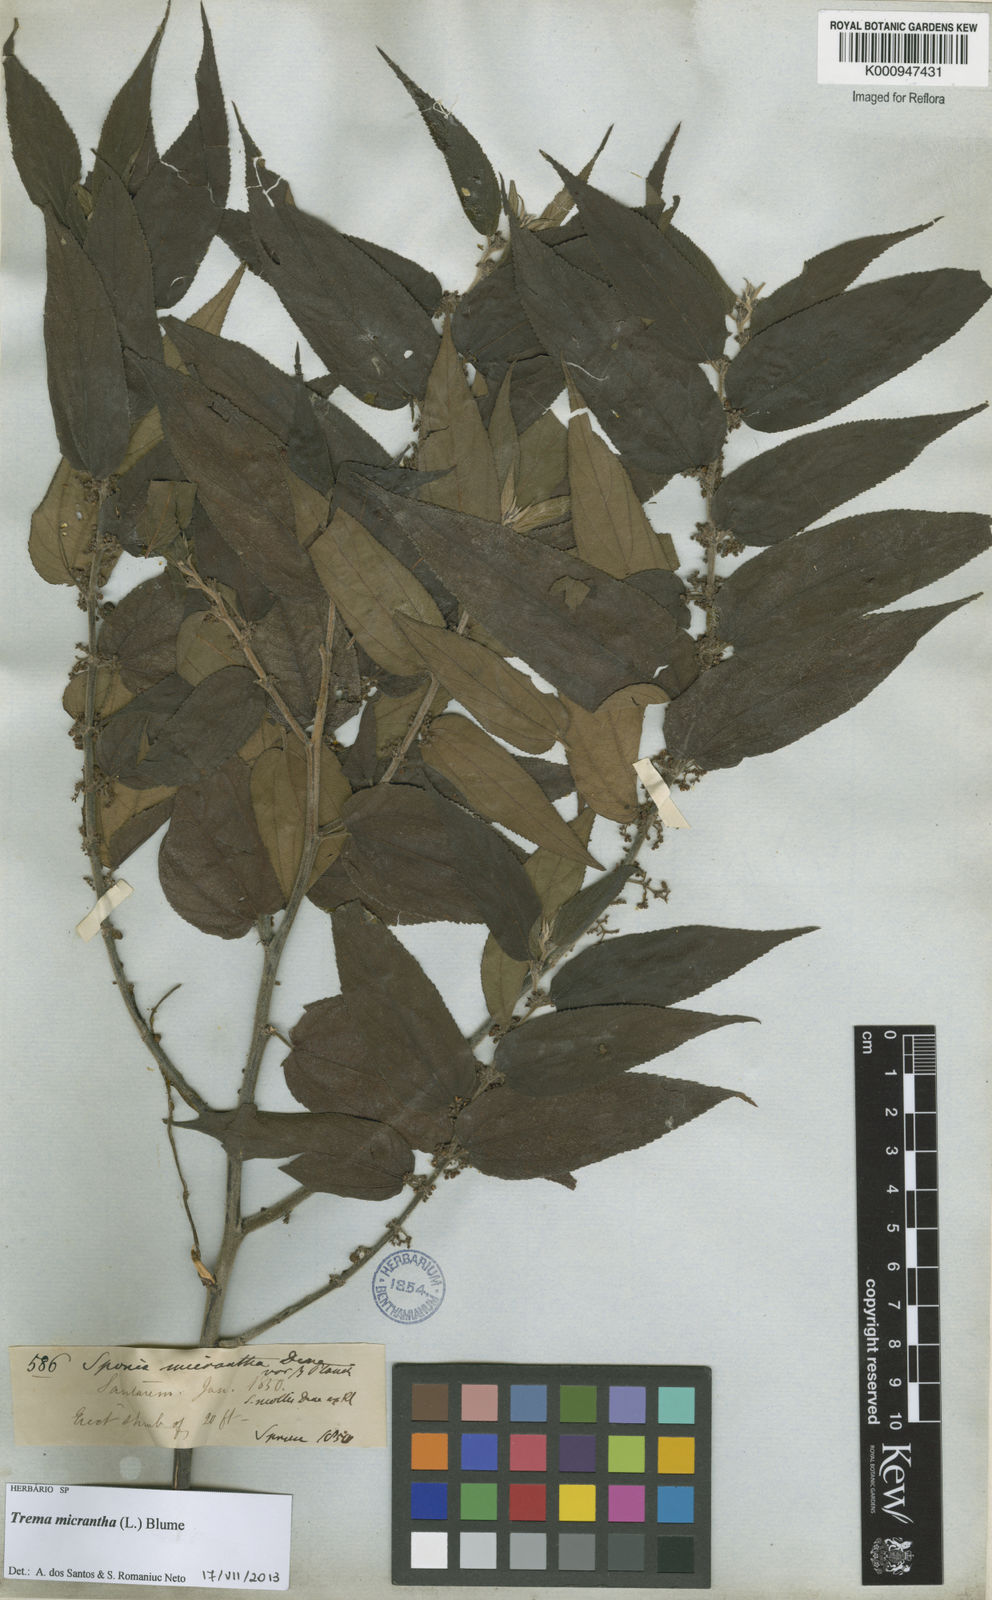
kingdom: Plantae
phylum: Tracheophyta
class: Magnoliopsida
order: Rosales
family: Cannabaceae
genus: Trema
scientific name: Trema micranthum
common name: Jamaican nettletree
